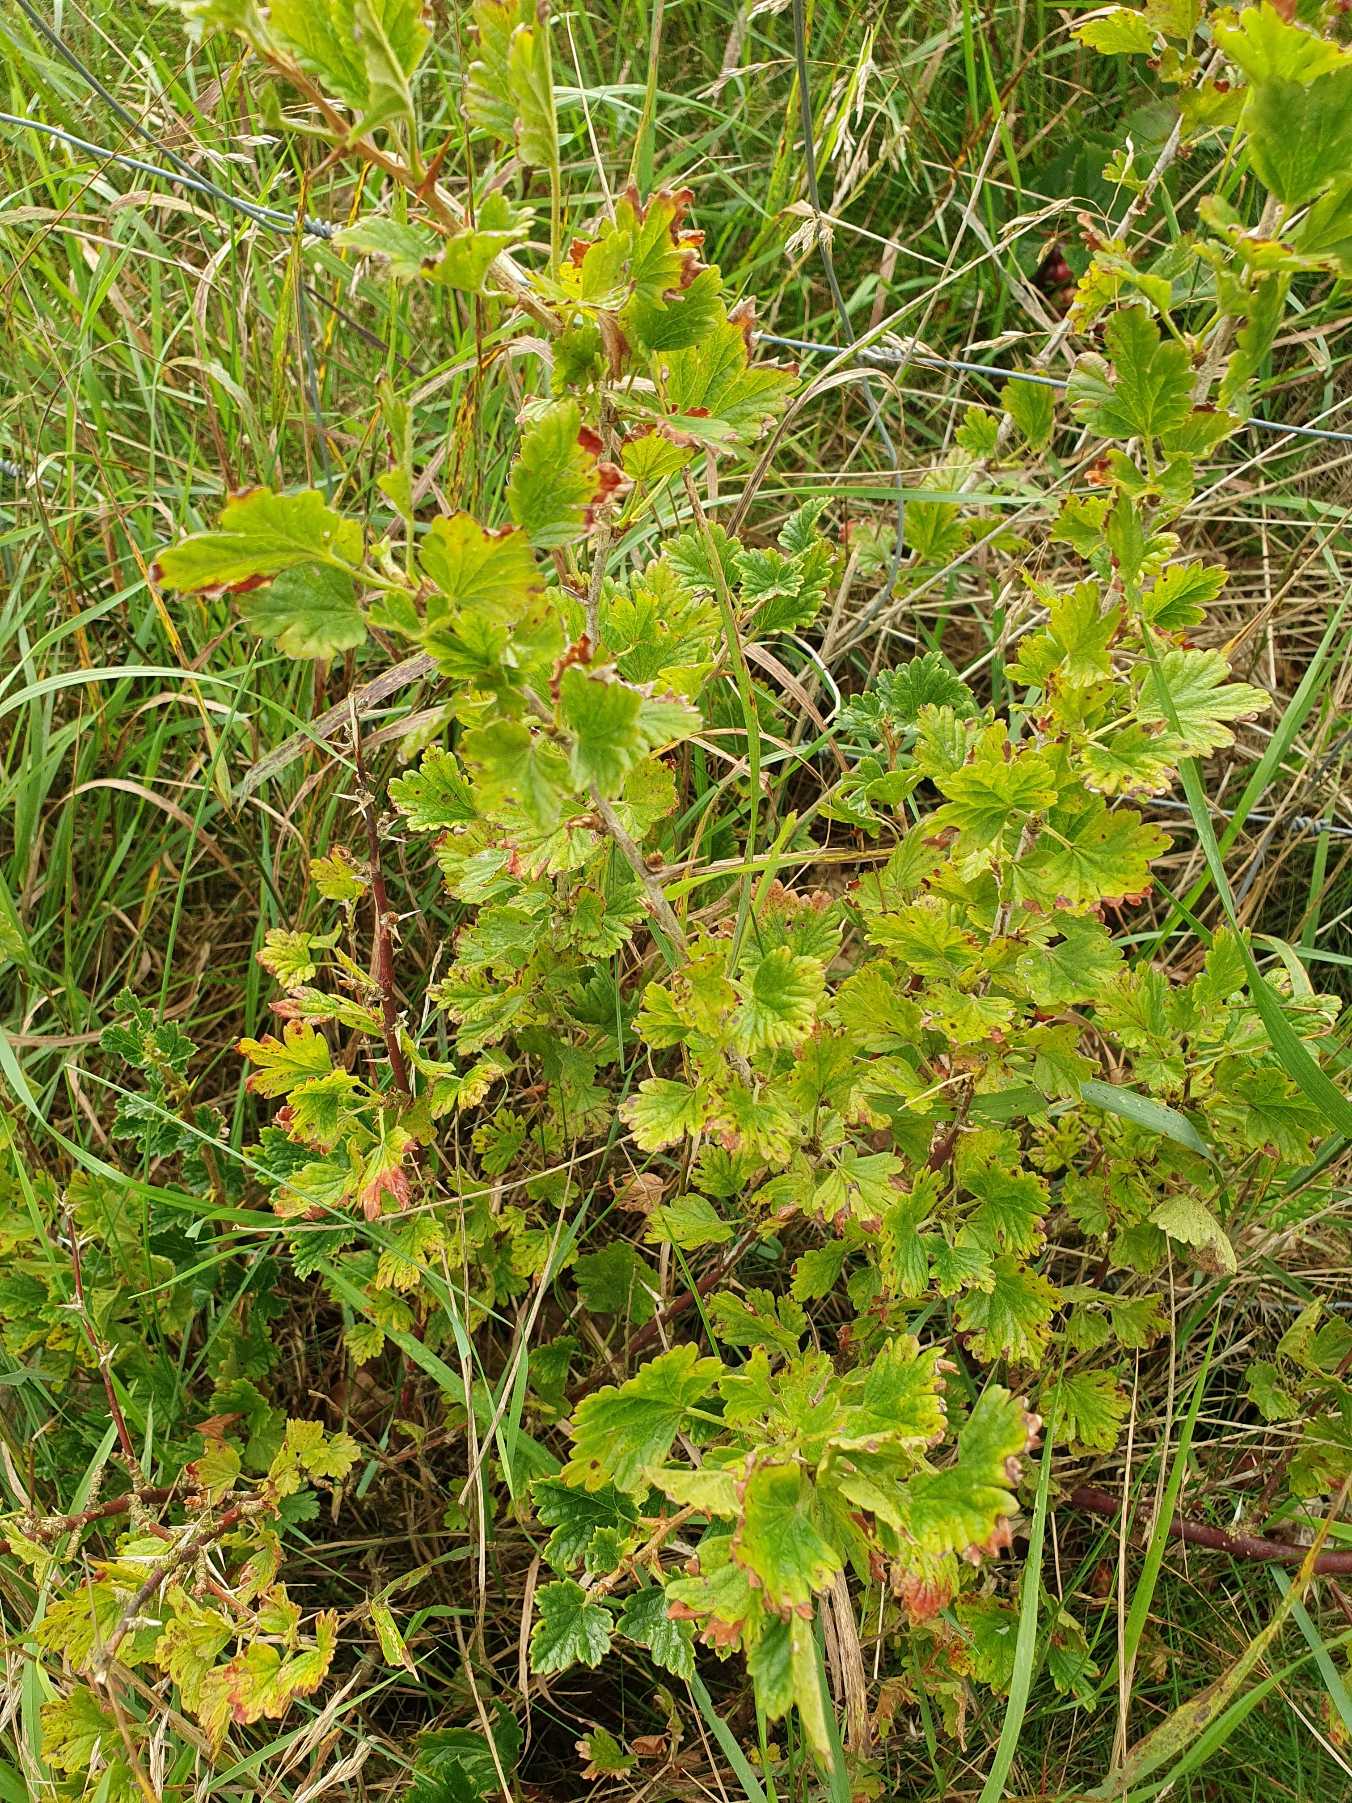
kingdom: Plantae
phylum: Tracheophyta
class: Magnoliopsida
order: Saxifragales
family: Grossulariaceae
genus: Ribes
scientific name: Ribes uva-crispa
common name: Stikkelsbær
